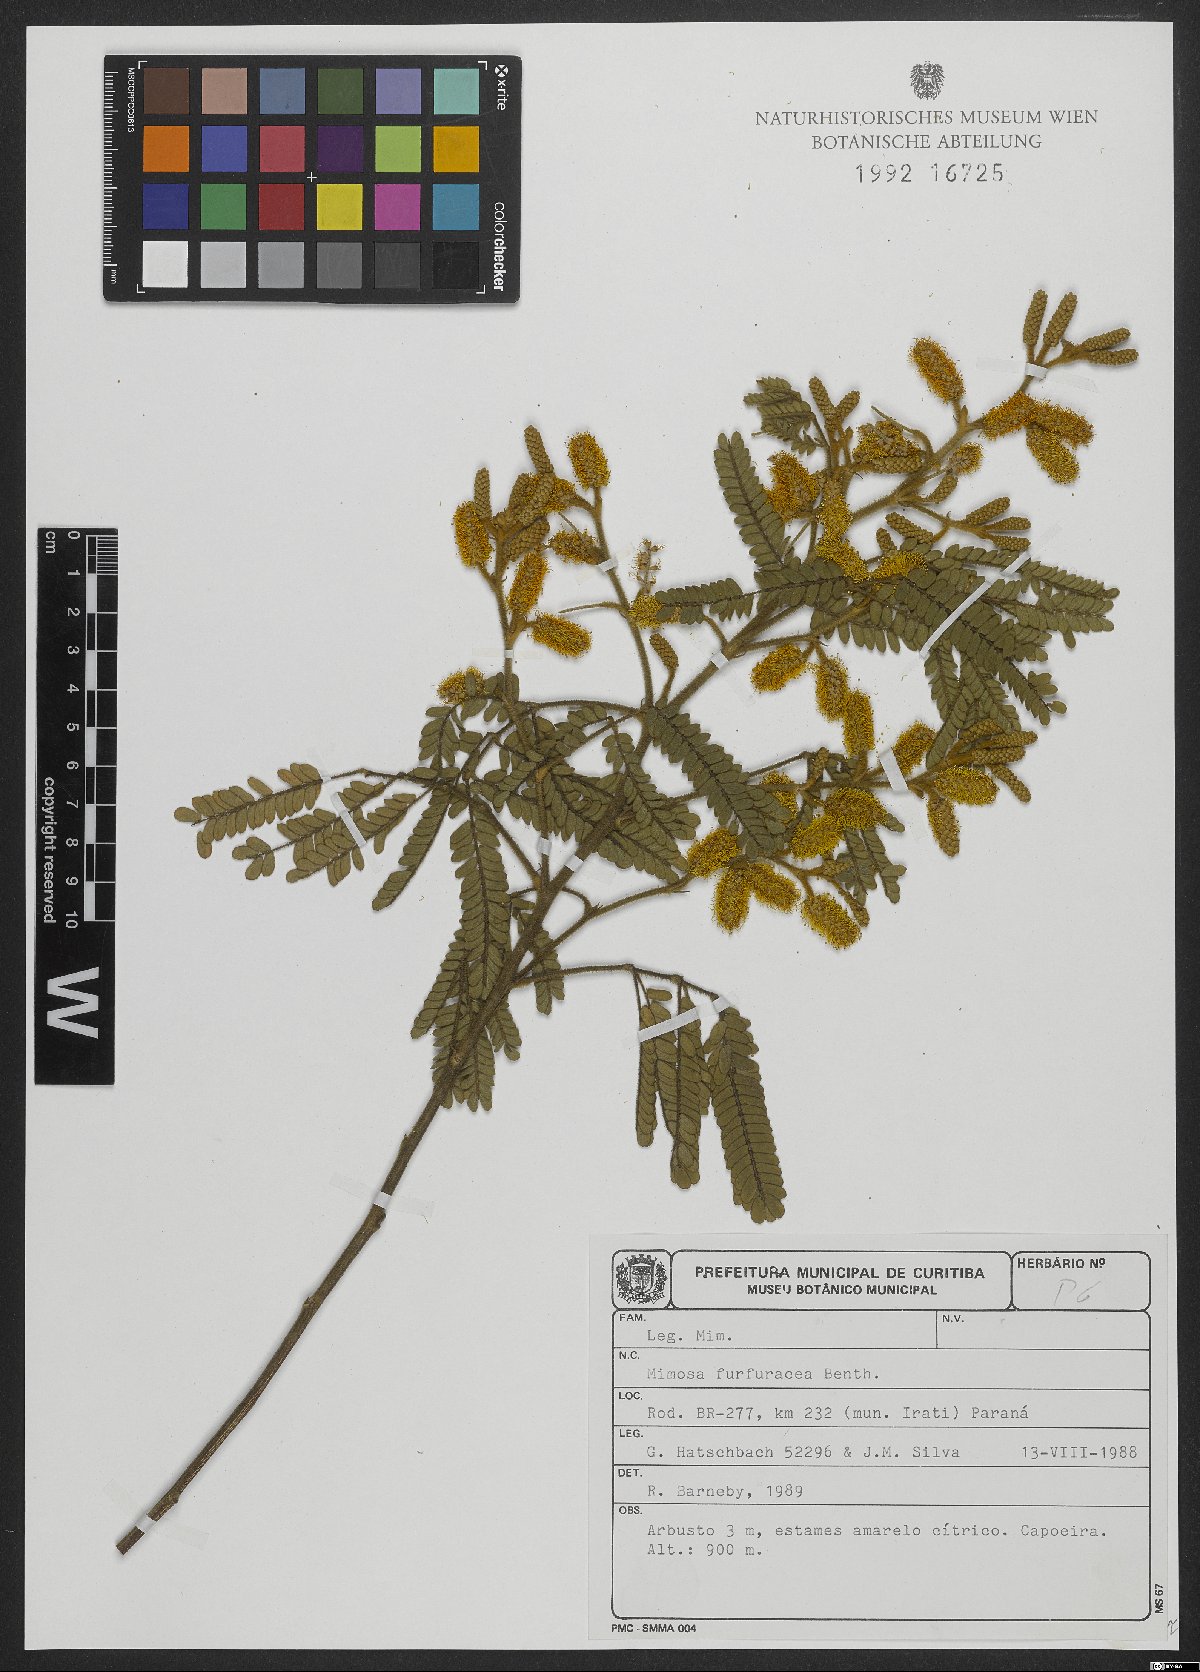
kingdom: Plantae
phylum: Tracheophyta
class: Magnoliopsida
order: Fabales
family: Fabaceae
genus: Mimosa
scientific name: Mimosa furfuracea
